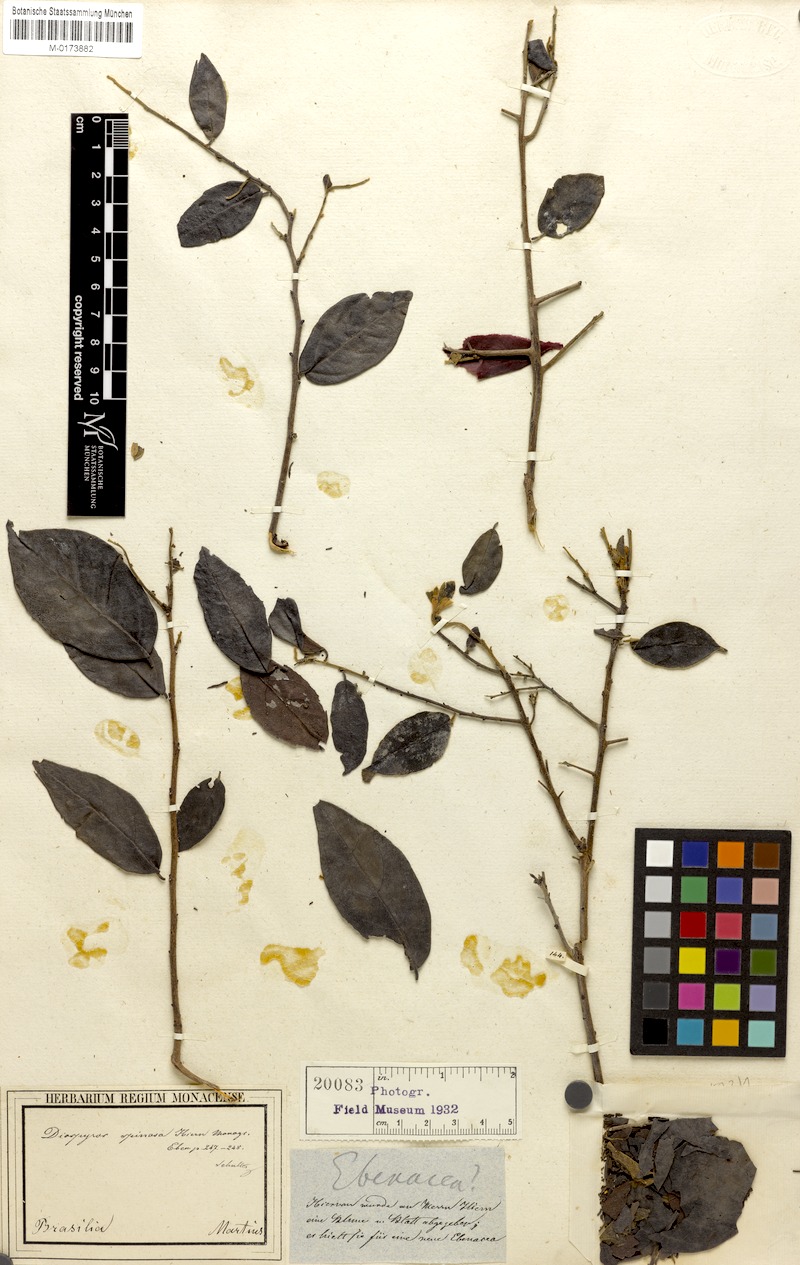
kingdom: Plantae
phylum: Tracheophyta
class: Magnoliopsida
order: Ericales
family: Ebenaceae
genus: Diospyros
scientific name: Diospyros chloroxylon
